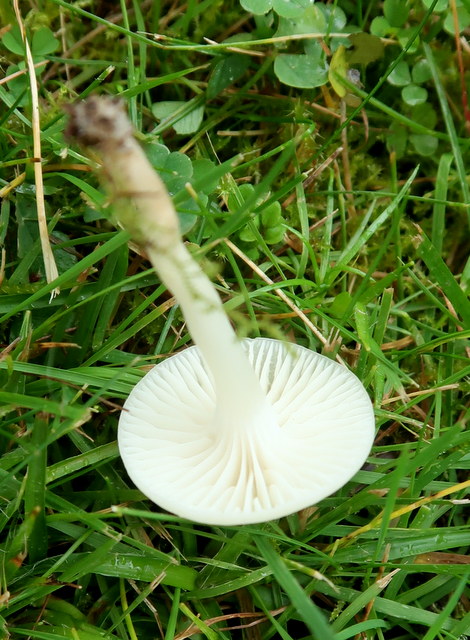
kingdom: Fungi
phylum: Basidiomycota
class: Agaricomycetes
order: Agaricales
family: Hygrophoraceae
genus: Cuphophyllus
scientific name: Cuphophyllus
